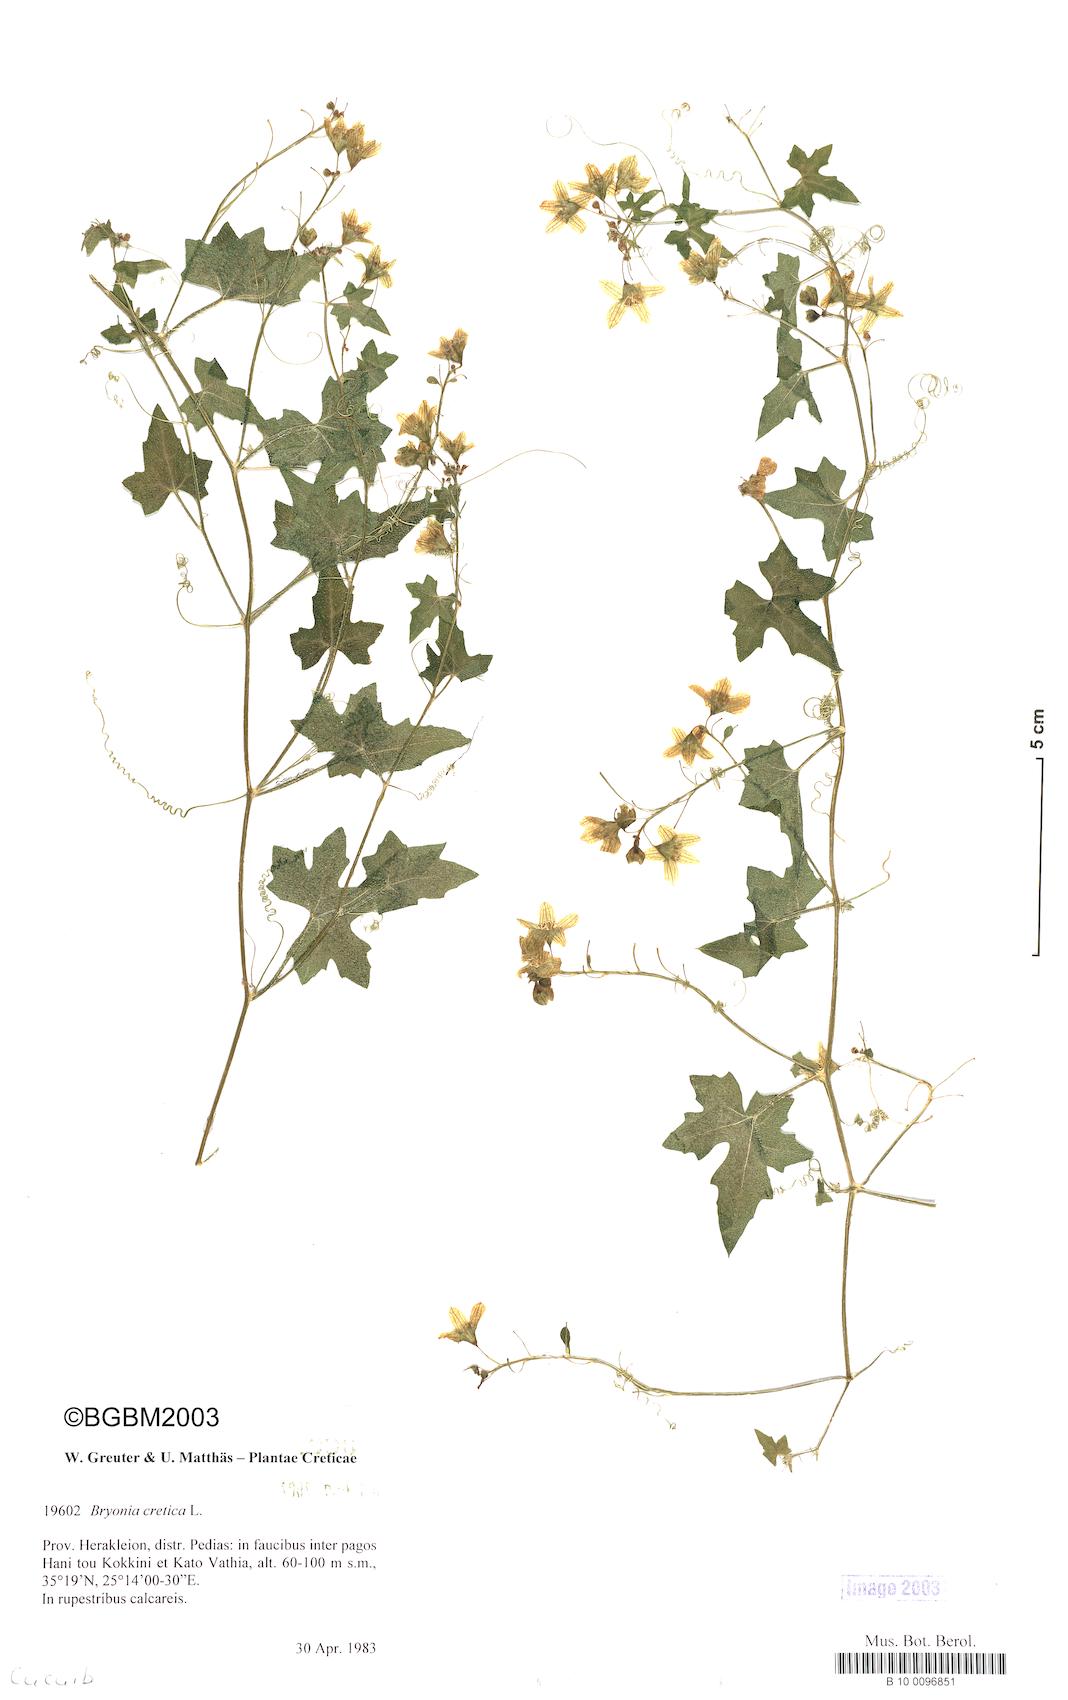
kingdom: Plantae
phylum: Tracheophyta
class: Magnoliopsida
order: Cucurbitales
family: Cucurbitaceae
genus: Bryonia
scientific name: Bryonia cretica
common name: Cretan bryony
